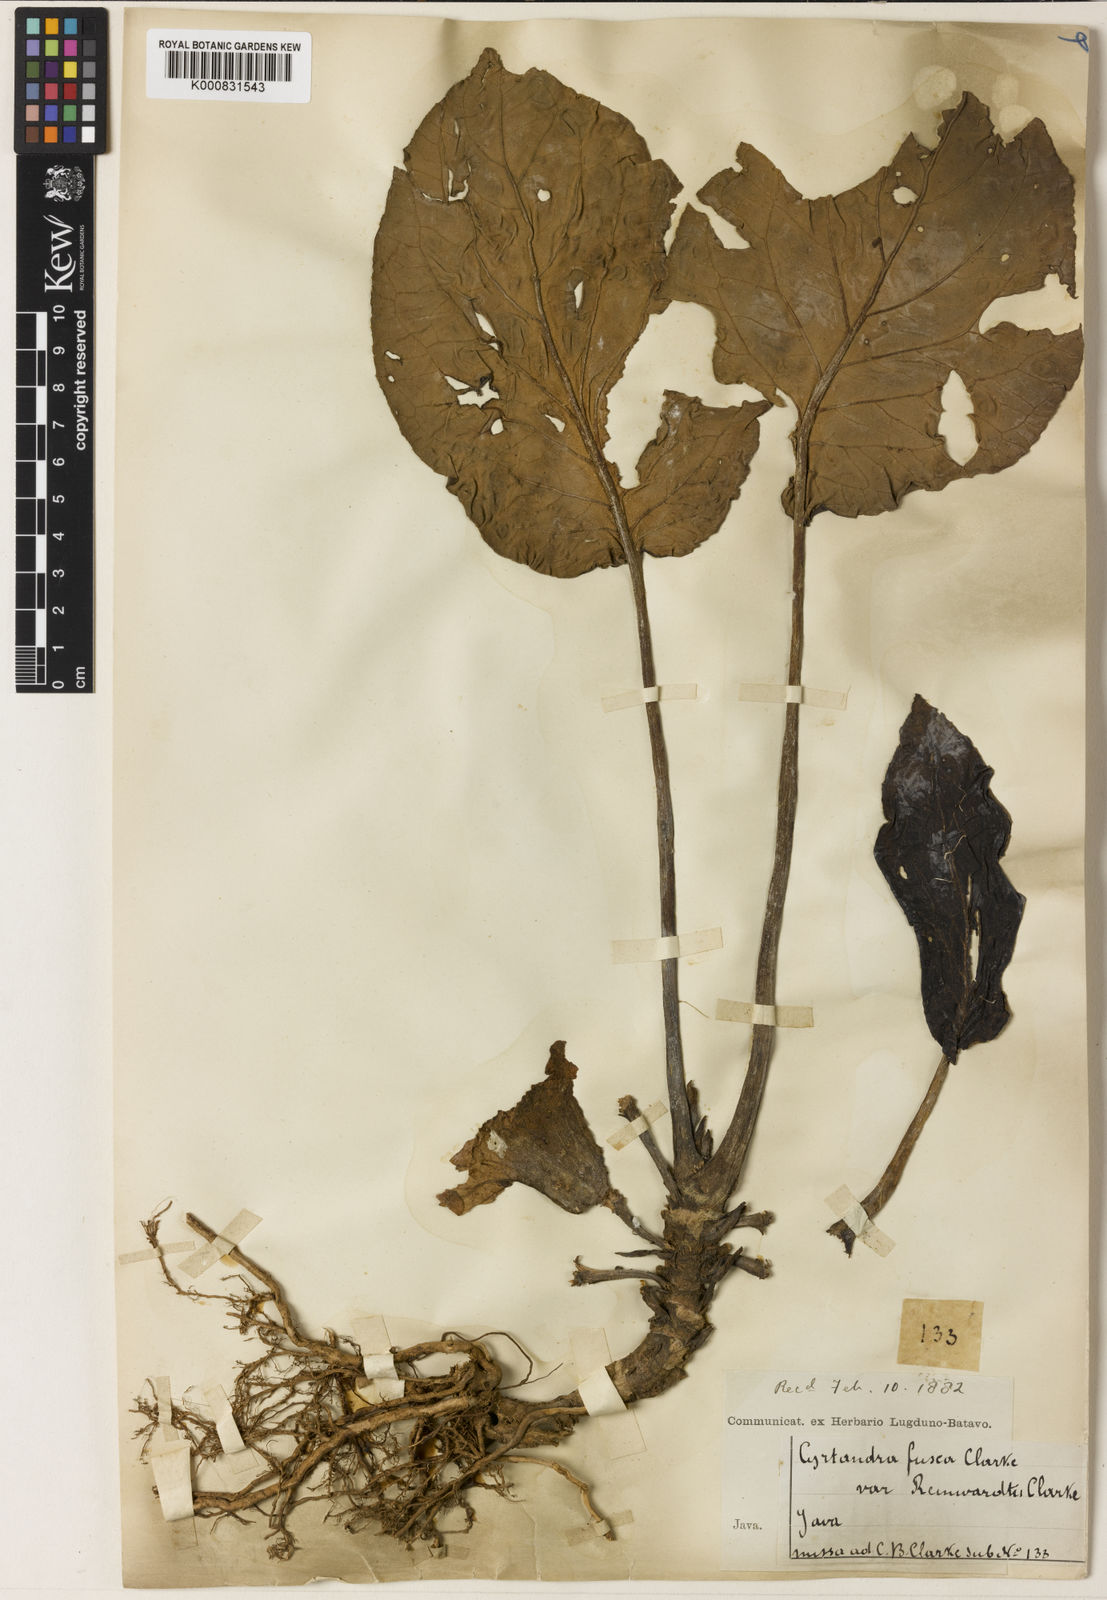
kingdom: Plantae
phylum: Tracheophyta
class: Magnoliopsida
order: Lamiales
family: Gesneriaceae
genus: Cyrtandra
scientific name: Cyrtandra populifolia
